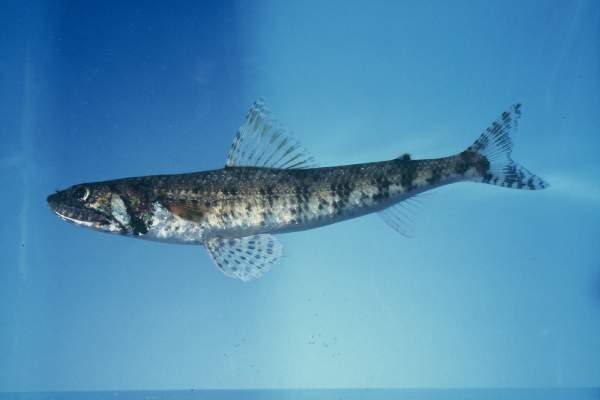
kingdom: Animalia
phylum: Chordata
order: Aulopiformes
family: Synodontidae
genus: Saurida
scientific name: Saurida nebulosa
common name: Nebulous lizardfish
